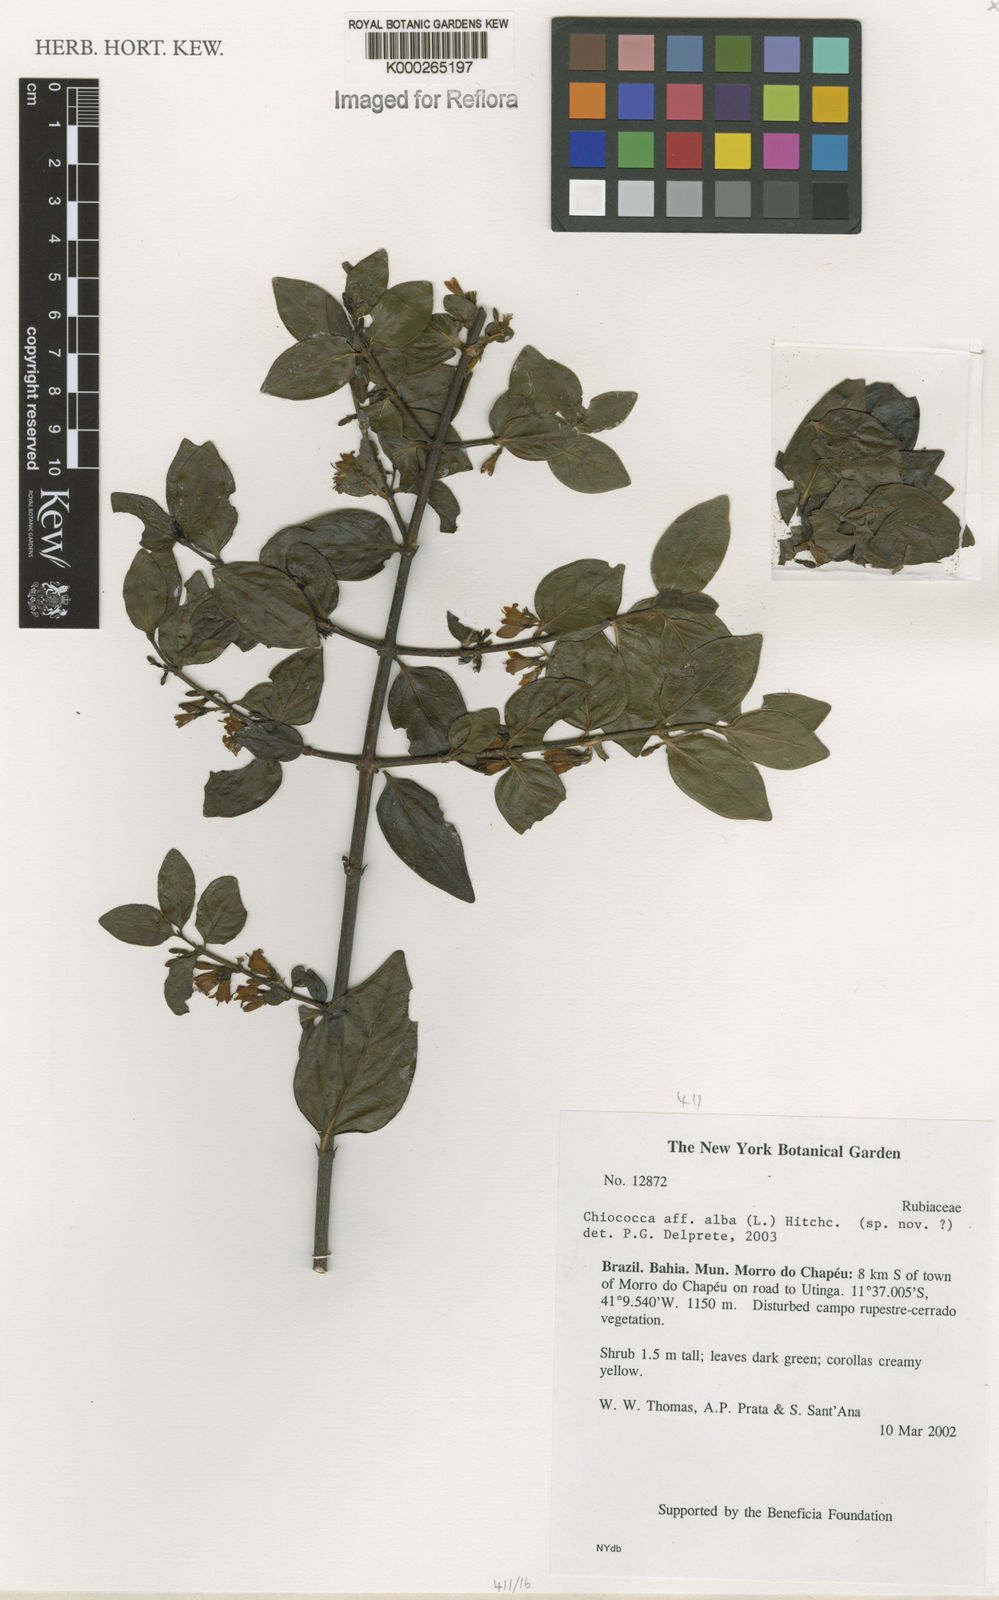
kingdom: Plantae
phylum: Tracheophyta
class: Magnoliopsida
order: Gentianales
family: Rubiaceae
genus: Chiococca
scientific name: Chiococca alba
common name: Snowberry
